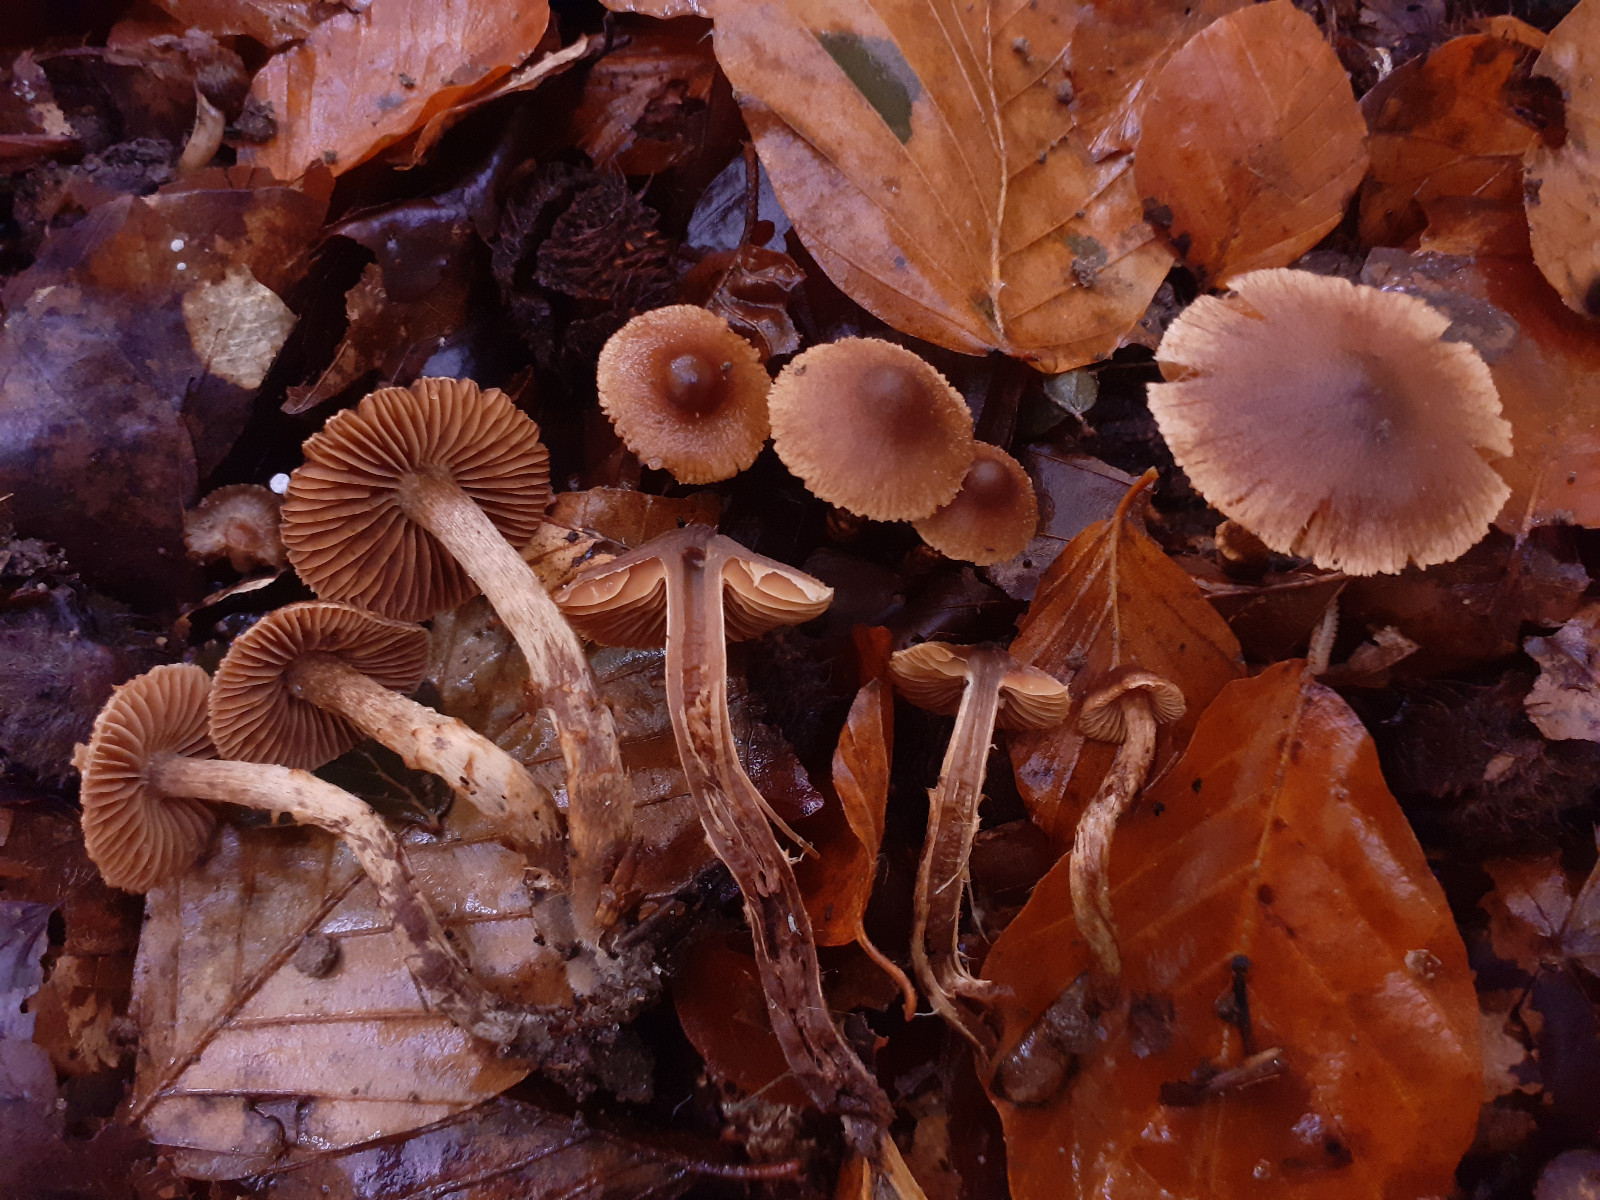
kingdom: Fungi
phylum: Basidiomycota
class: Agaricomycetes
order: Agaricales
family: Cortinariaceae
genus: Cortinarius
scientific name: Cortinarius castaneopallidus
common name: bronzetrævlet slørhat
